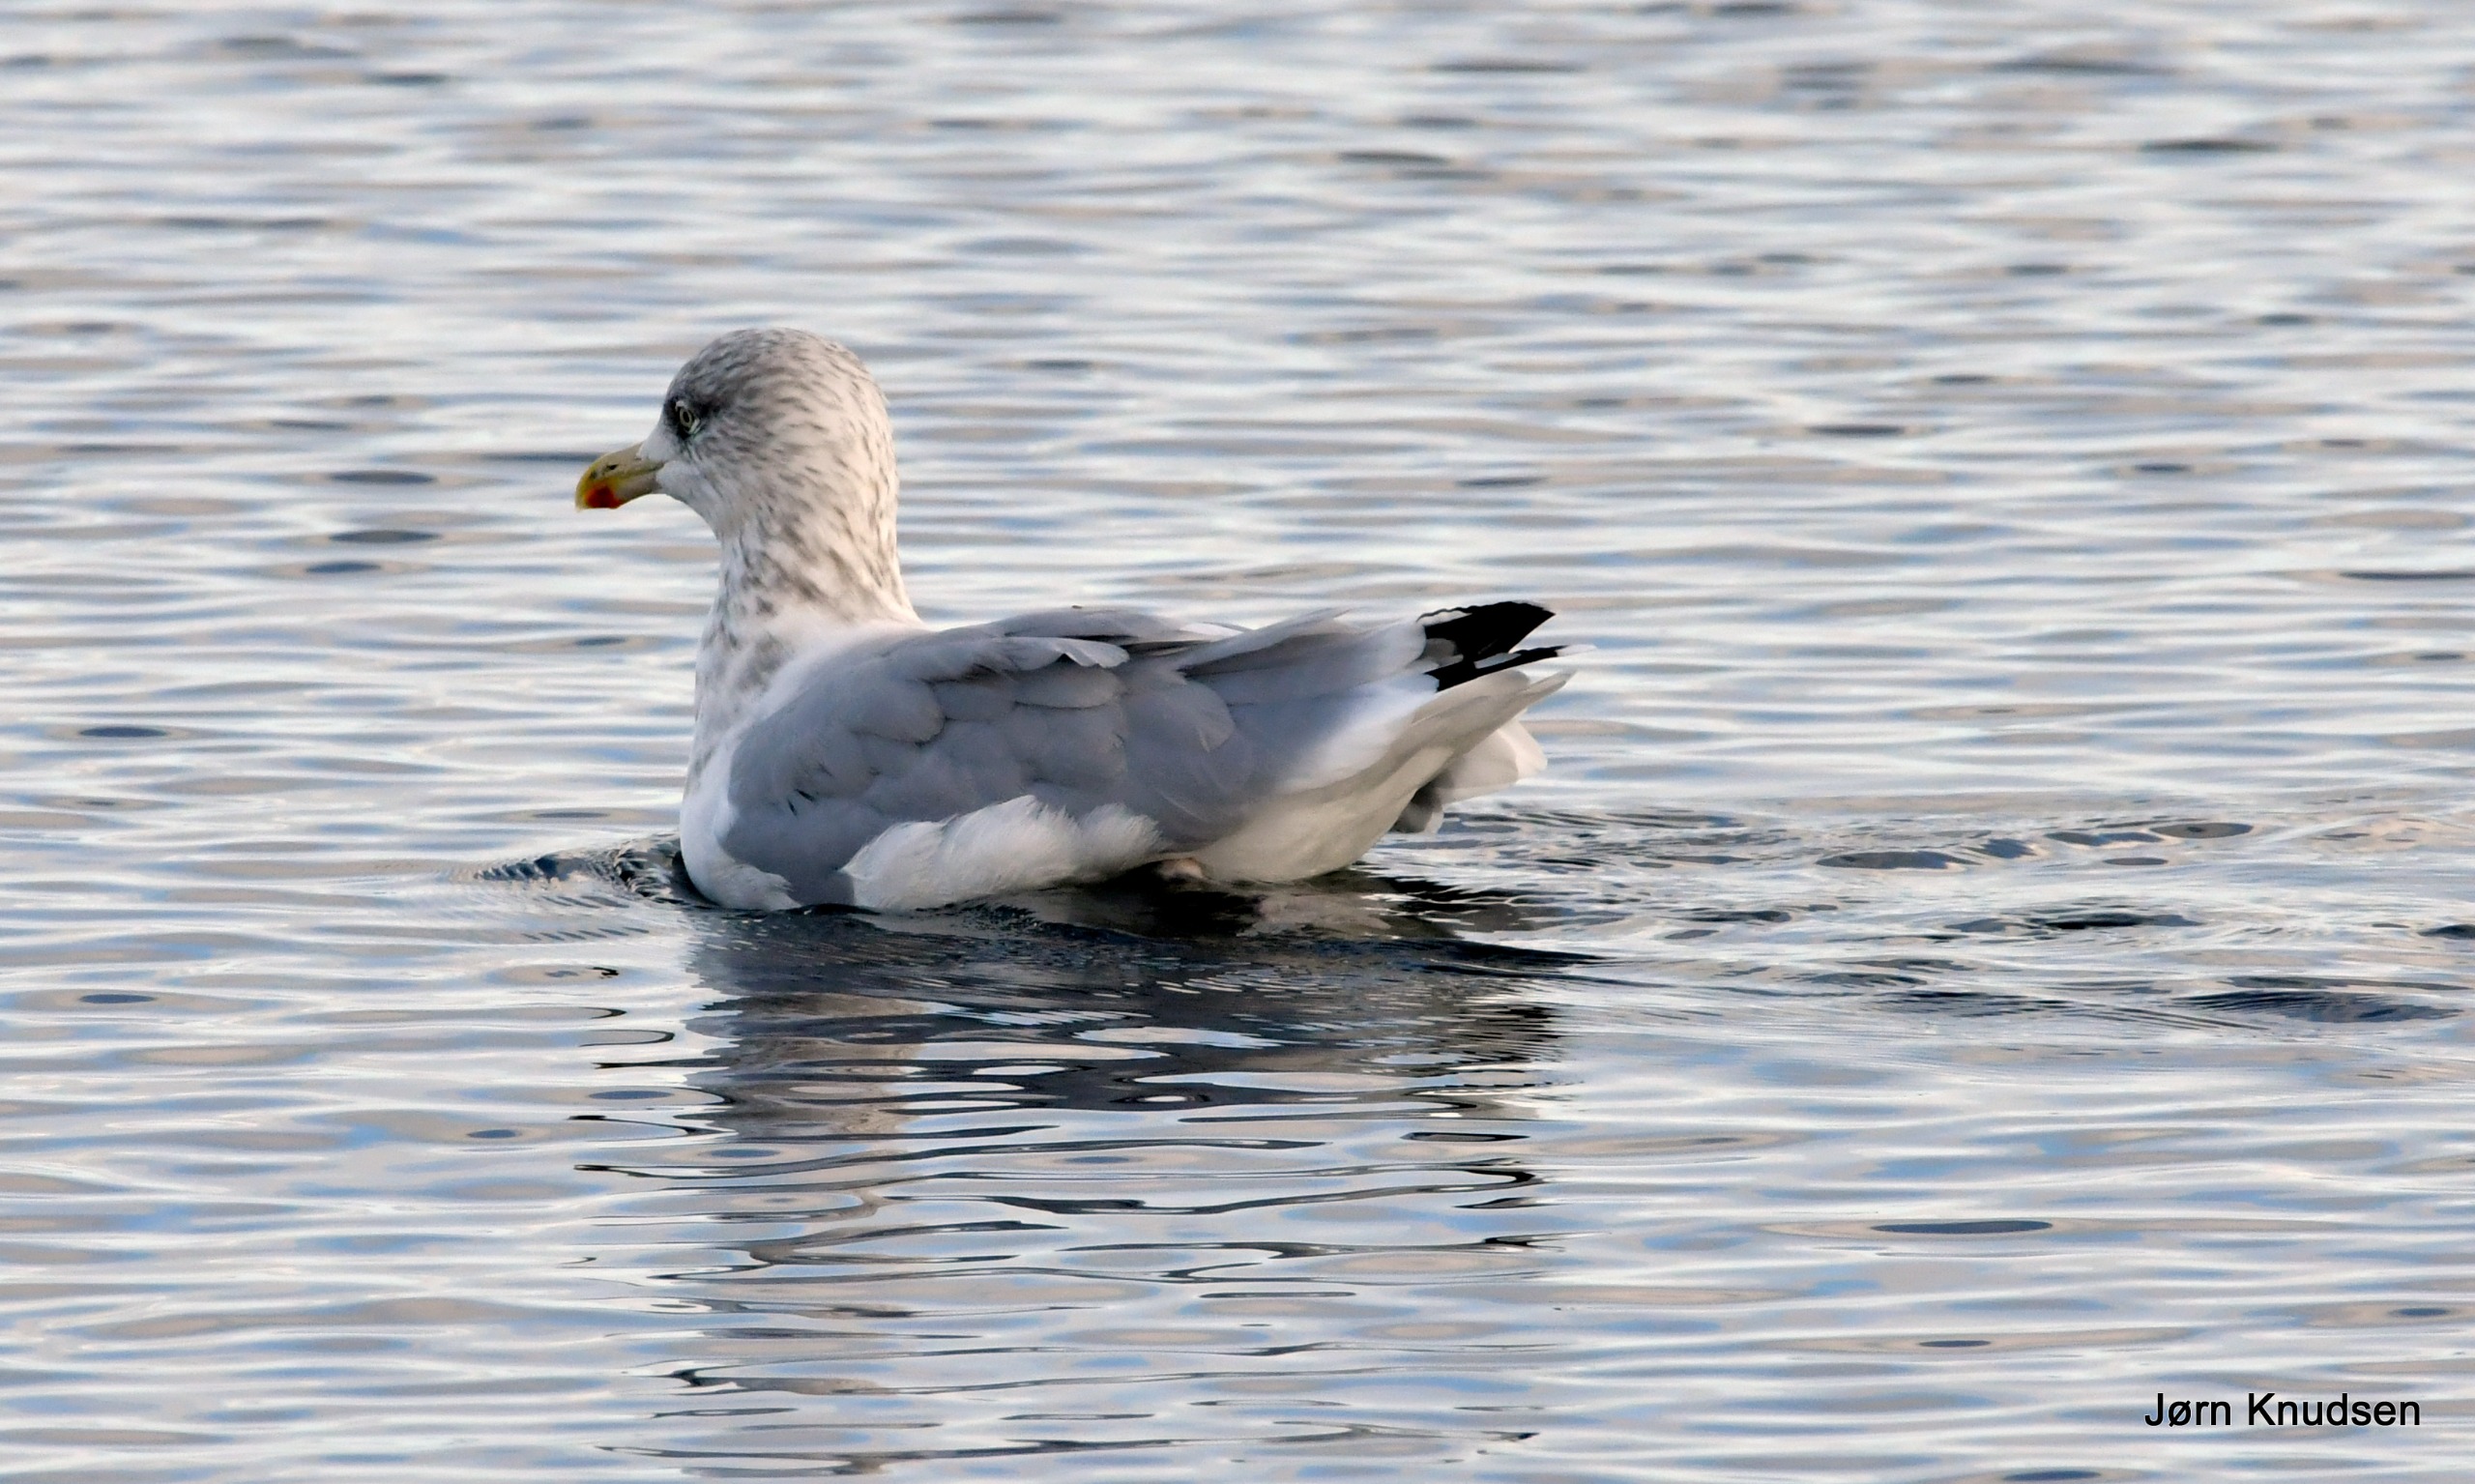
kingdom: Animalia
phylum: Chordata
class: Aves
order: Charadriiformes
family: Laridae
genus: Larus
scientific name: Larus argentatus
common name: Sølvmåge
